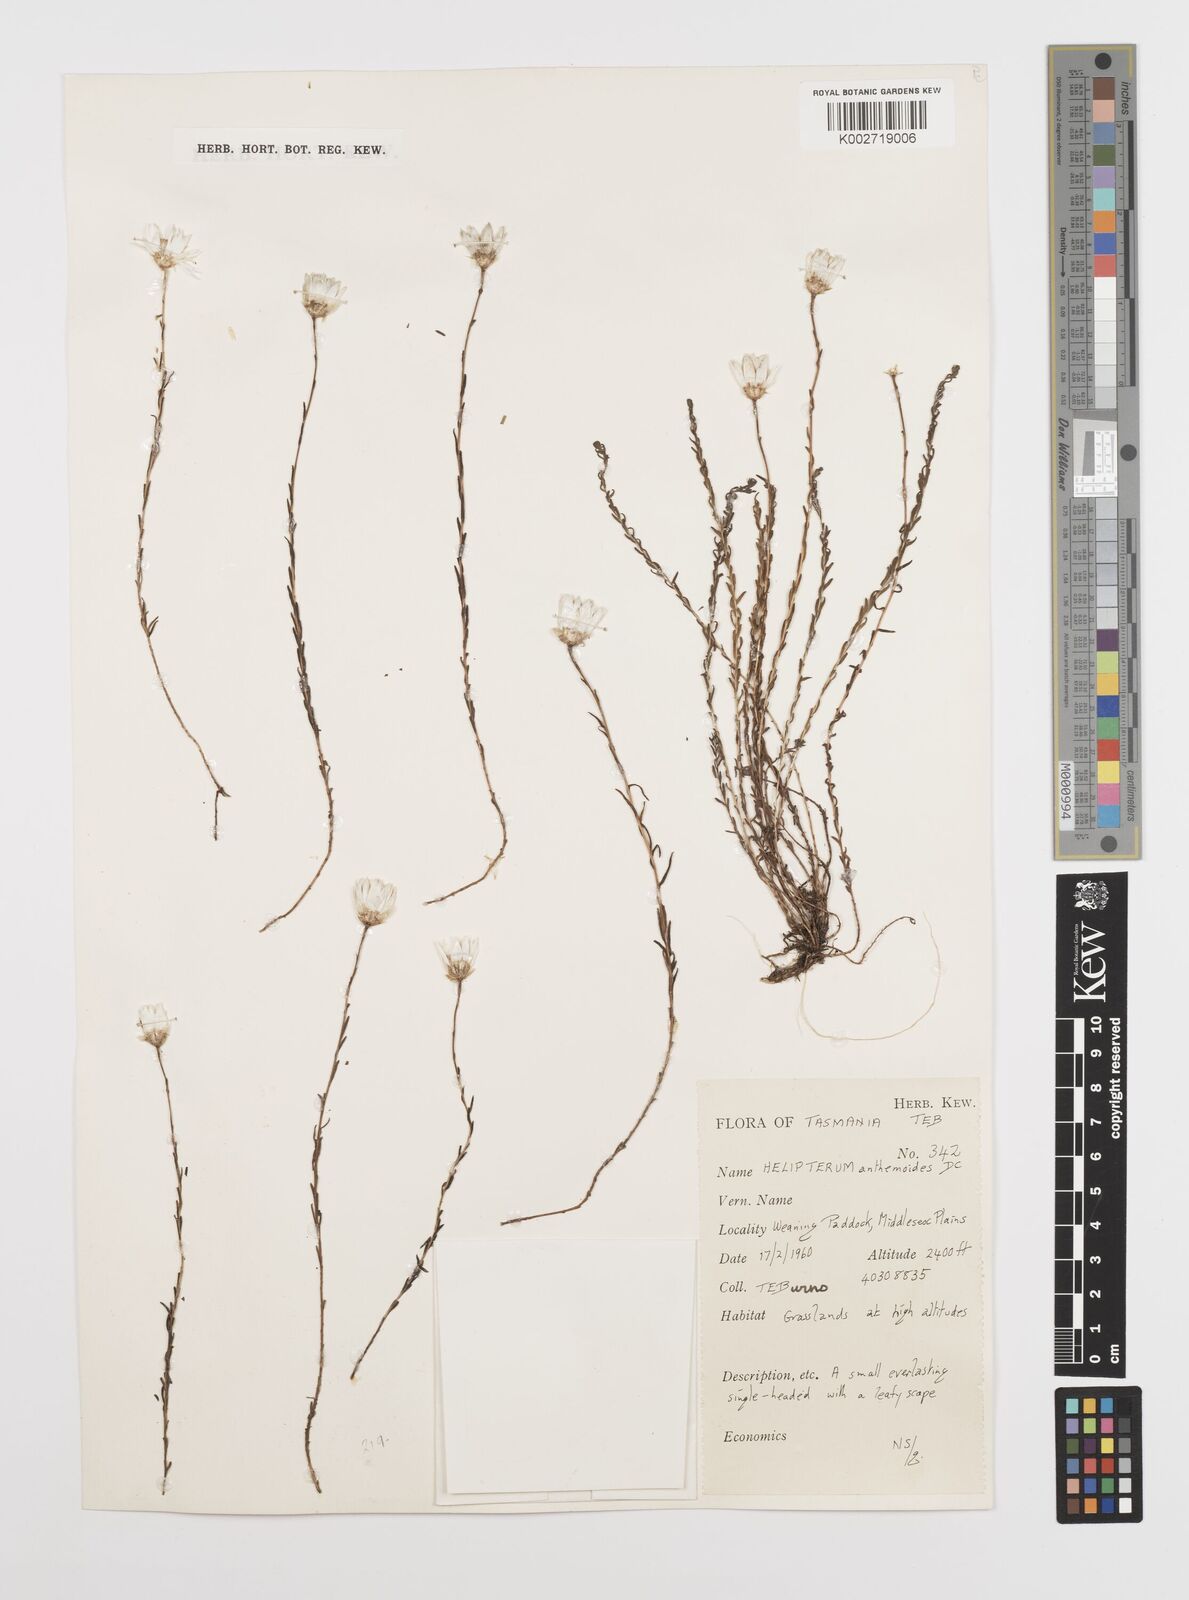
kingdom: Plantae
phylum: Tracheophyta
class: Magnoliopsida
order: Asterales
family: Asteraceae
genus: Rhodanthe
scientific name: Rhodanthe anthemoides
